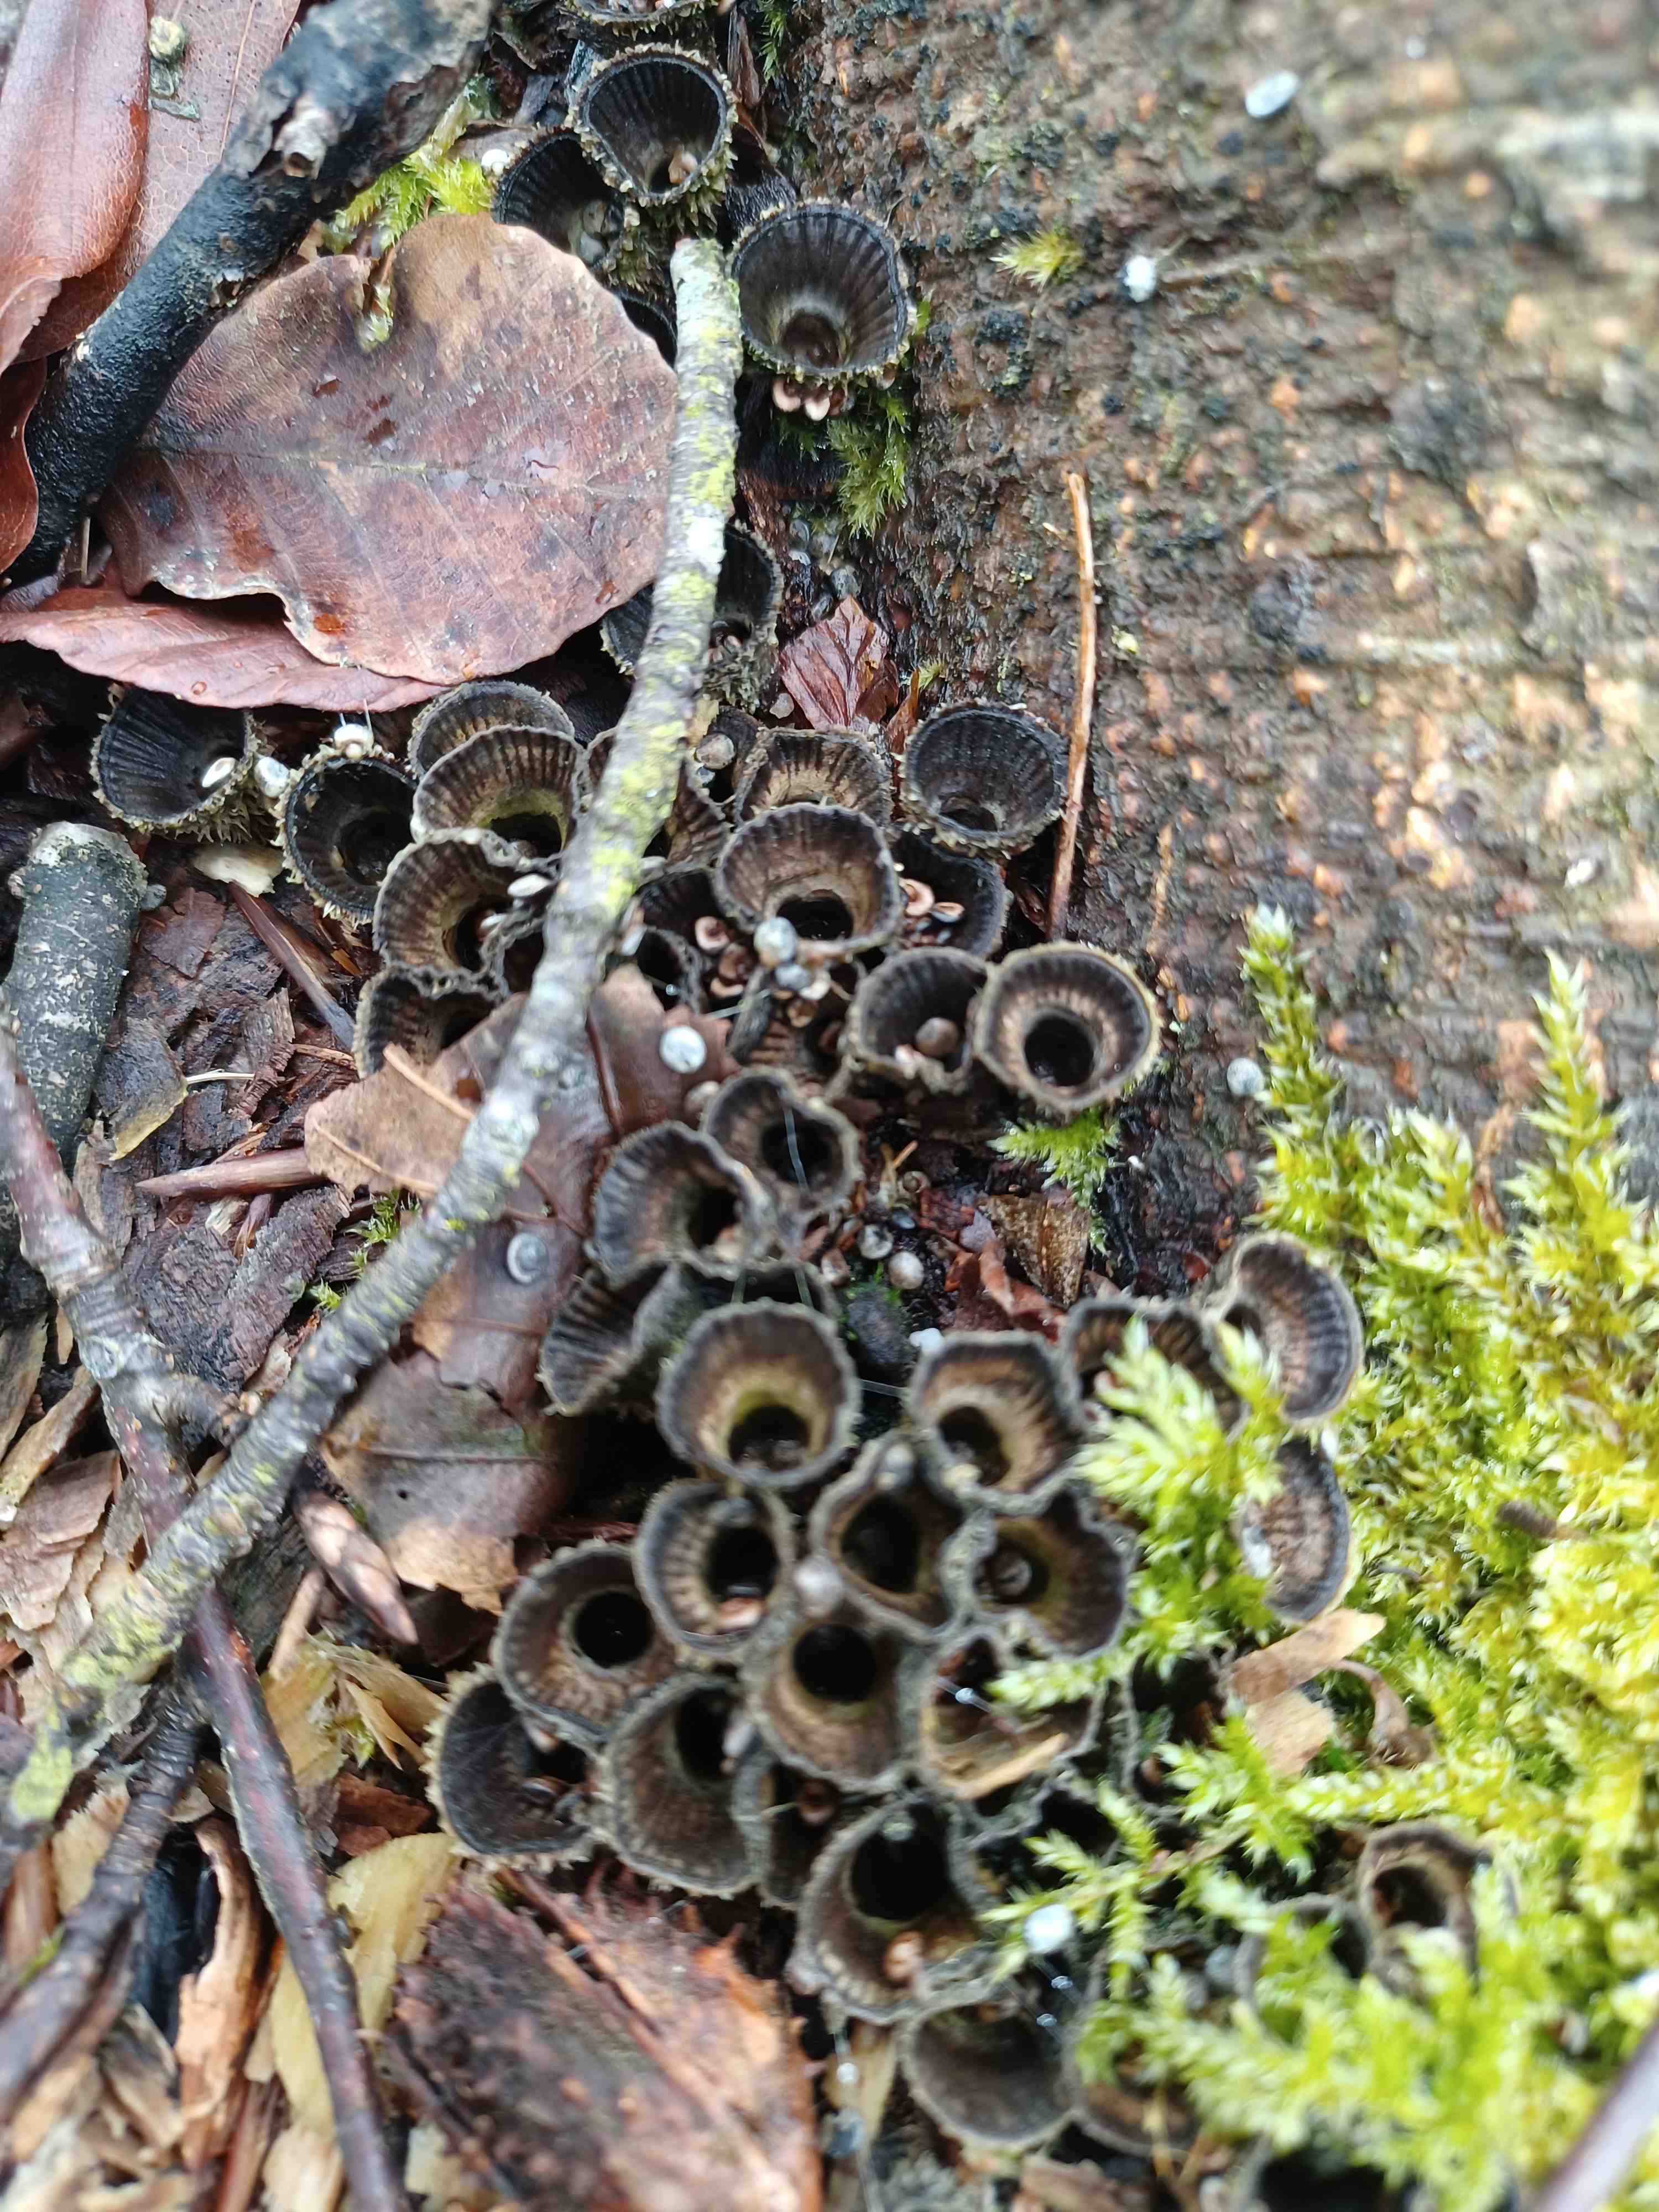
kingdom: Fungi
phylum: Basidiomycota
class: Agaricomycetes
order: Agaricales
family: Agaricaceae
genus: Cyathus
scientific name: Cyathus striatus
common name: stribet redesvamp
